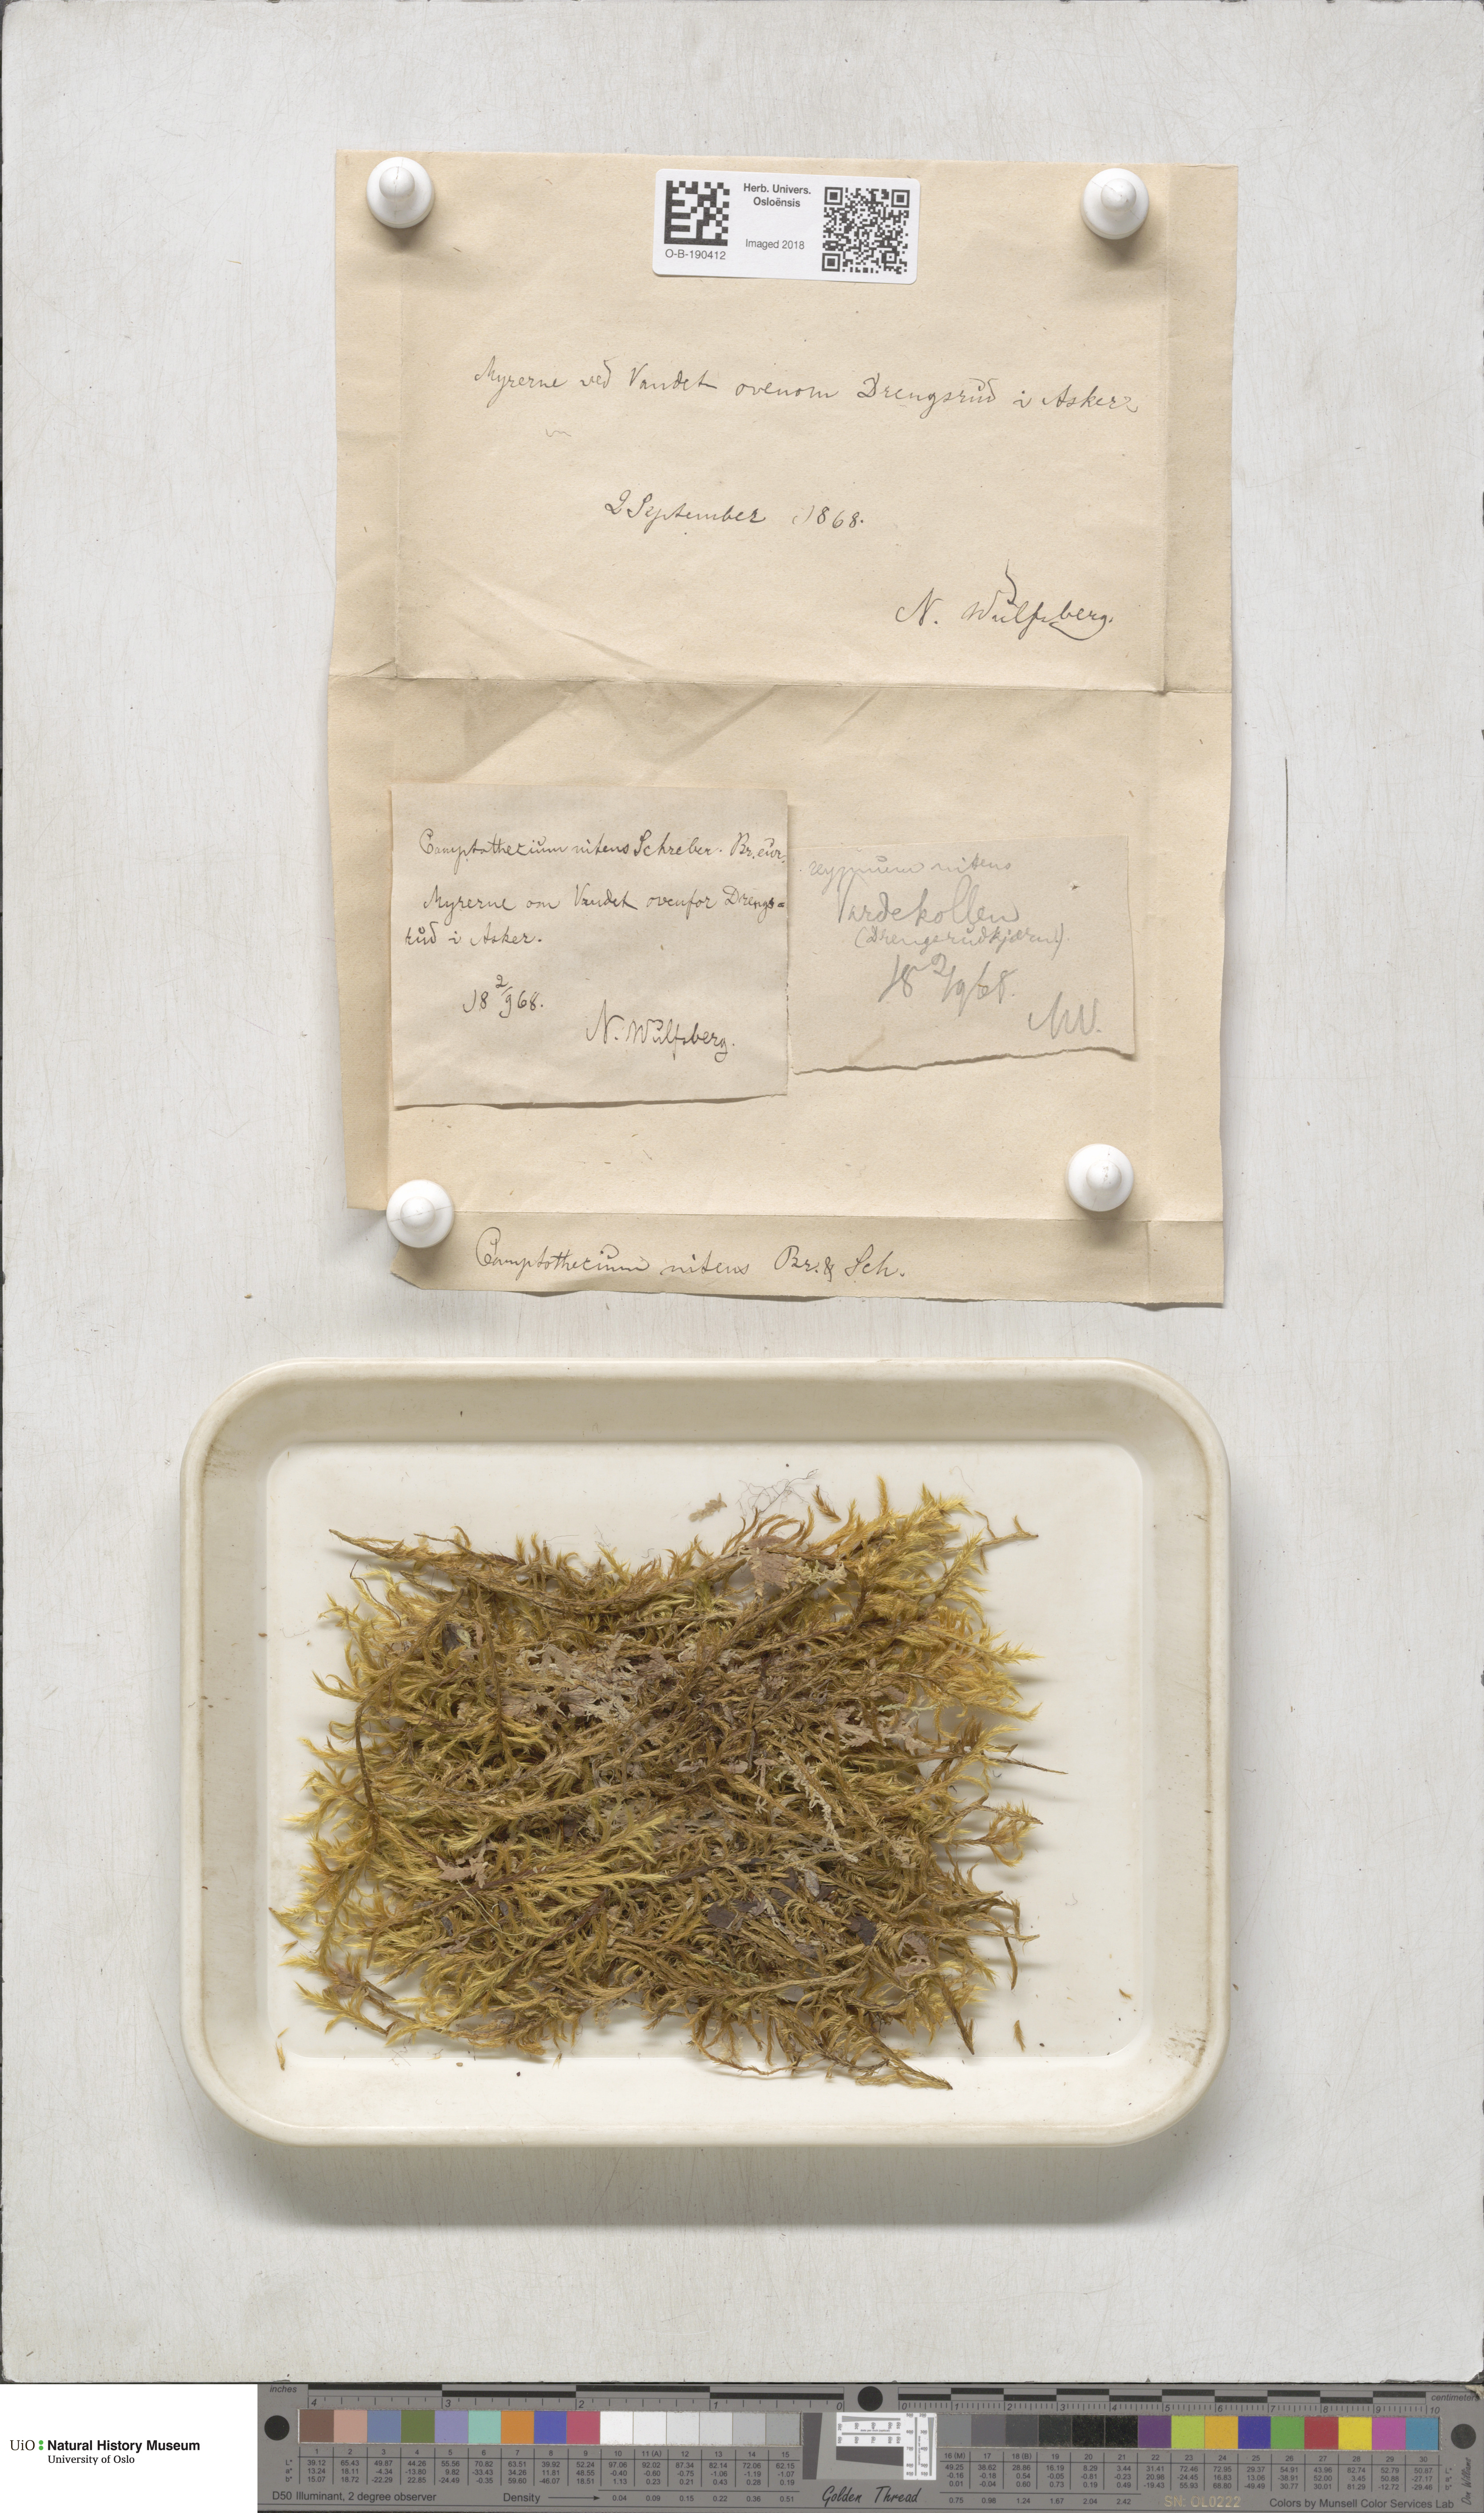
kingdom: Plantae
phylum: Bryophyta
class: Bryopsida
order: Hypnales
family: Amblystegiaceae
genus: Tomentypnum
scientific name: Tomentypnum nitens
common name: Golden fuzzy fen moss
